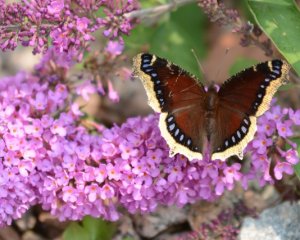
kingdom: Animalia
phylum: Arthropoda
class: Insecta
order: Lepidoptera
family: Nymphalidae
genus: Nymphalis
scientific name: Nymphalis antiopa
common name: Mourning Cloak
